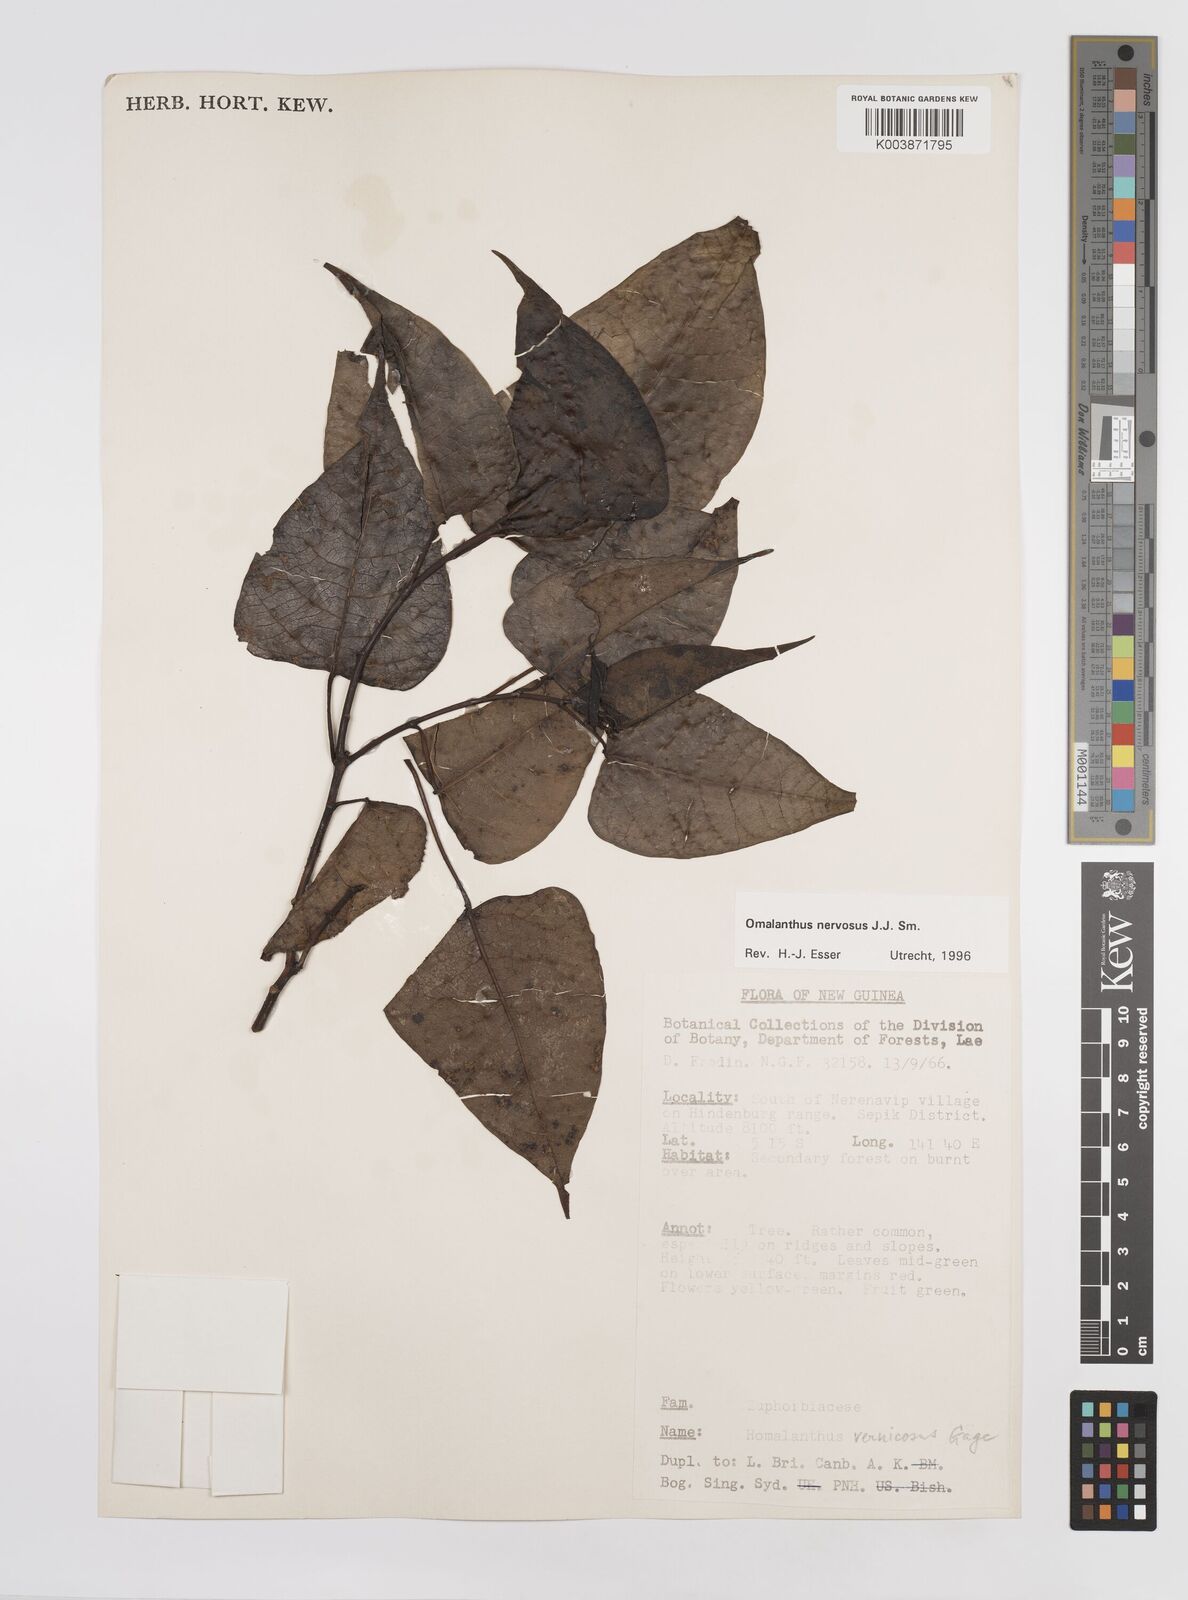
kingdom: Plantae
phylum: Tracheophyta
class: Magnoliopsida
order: Malpighiales
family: Euphorbiaceae
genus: Homalanthus
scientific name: Homalanthus nervosus
